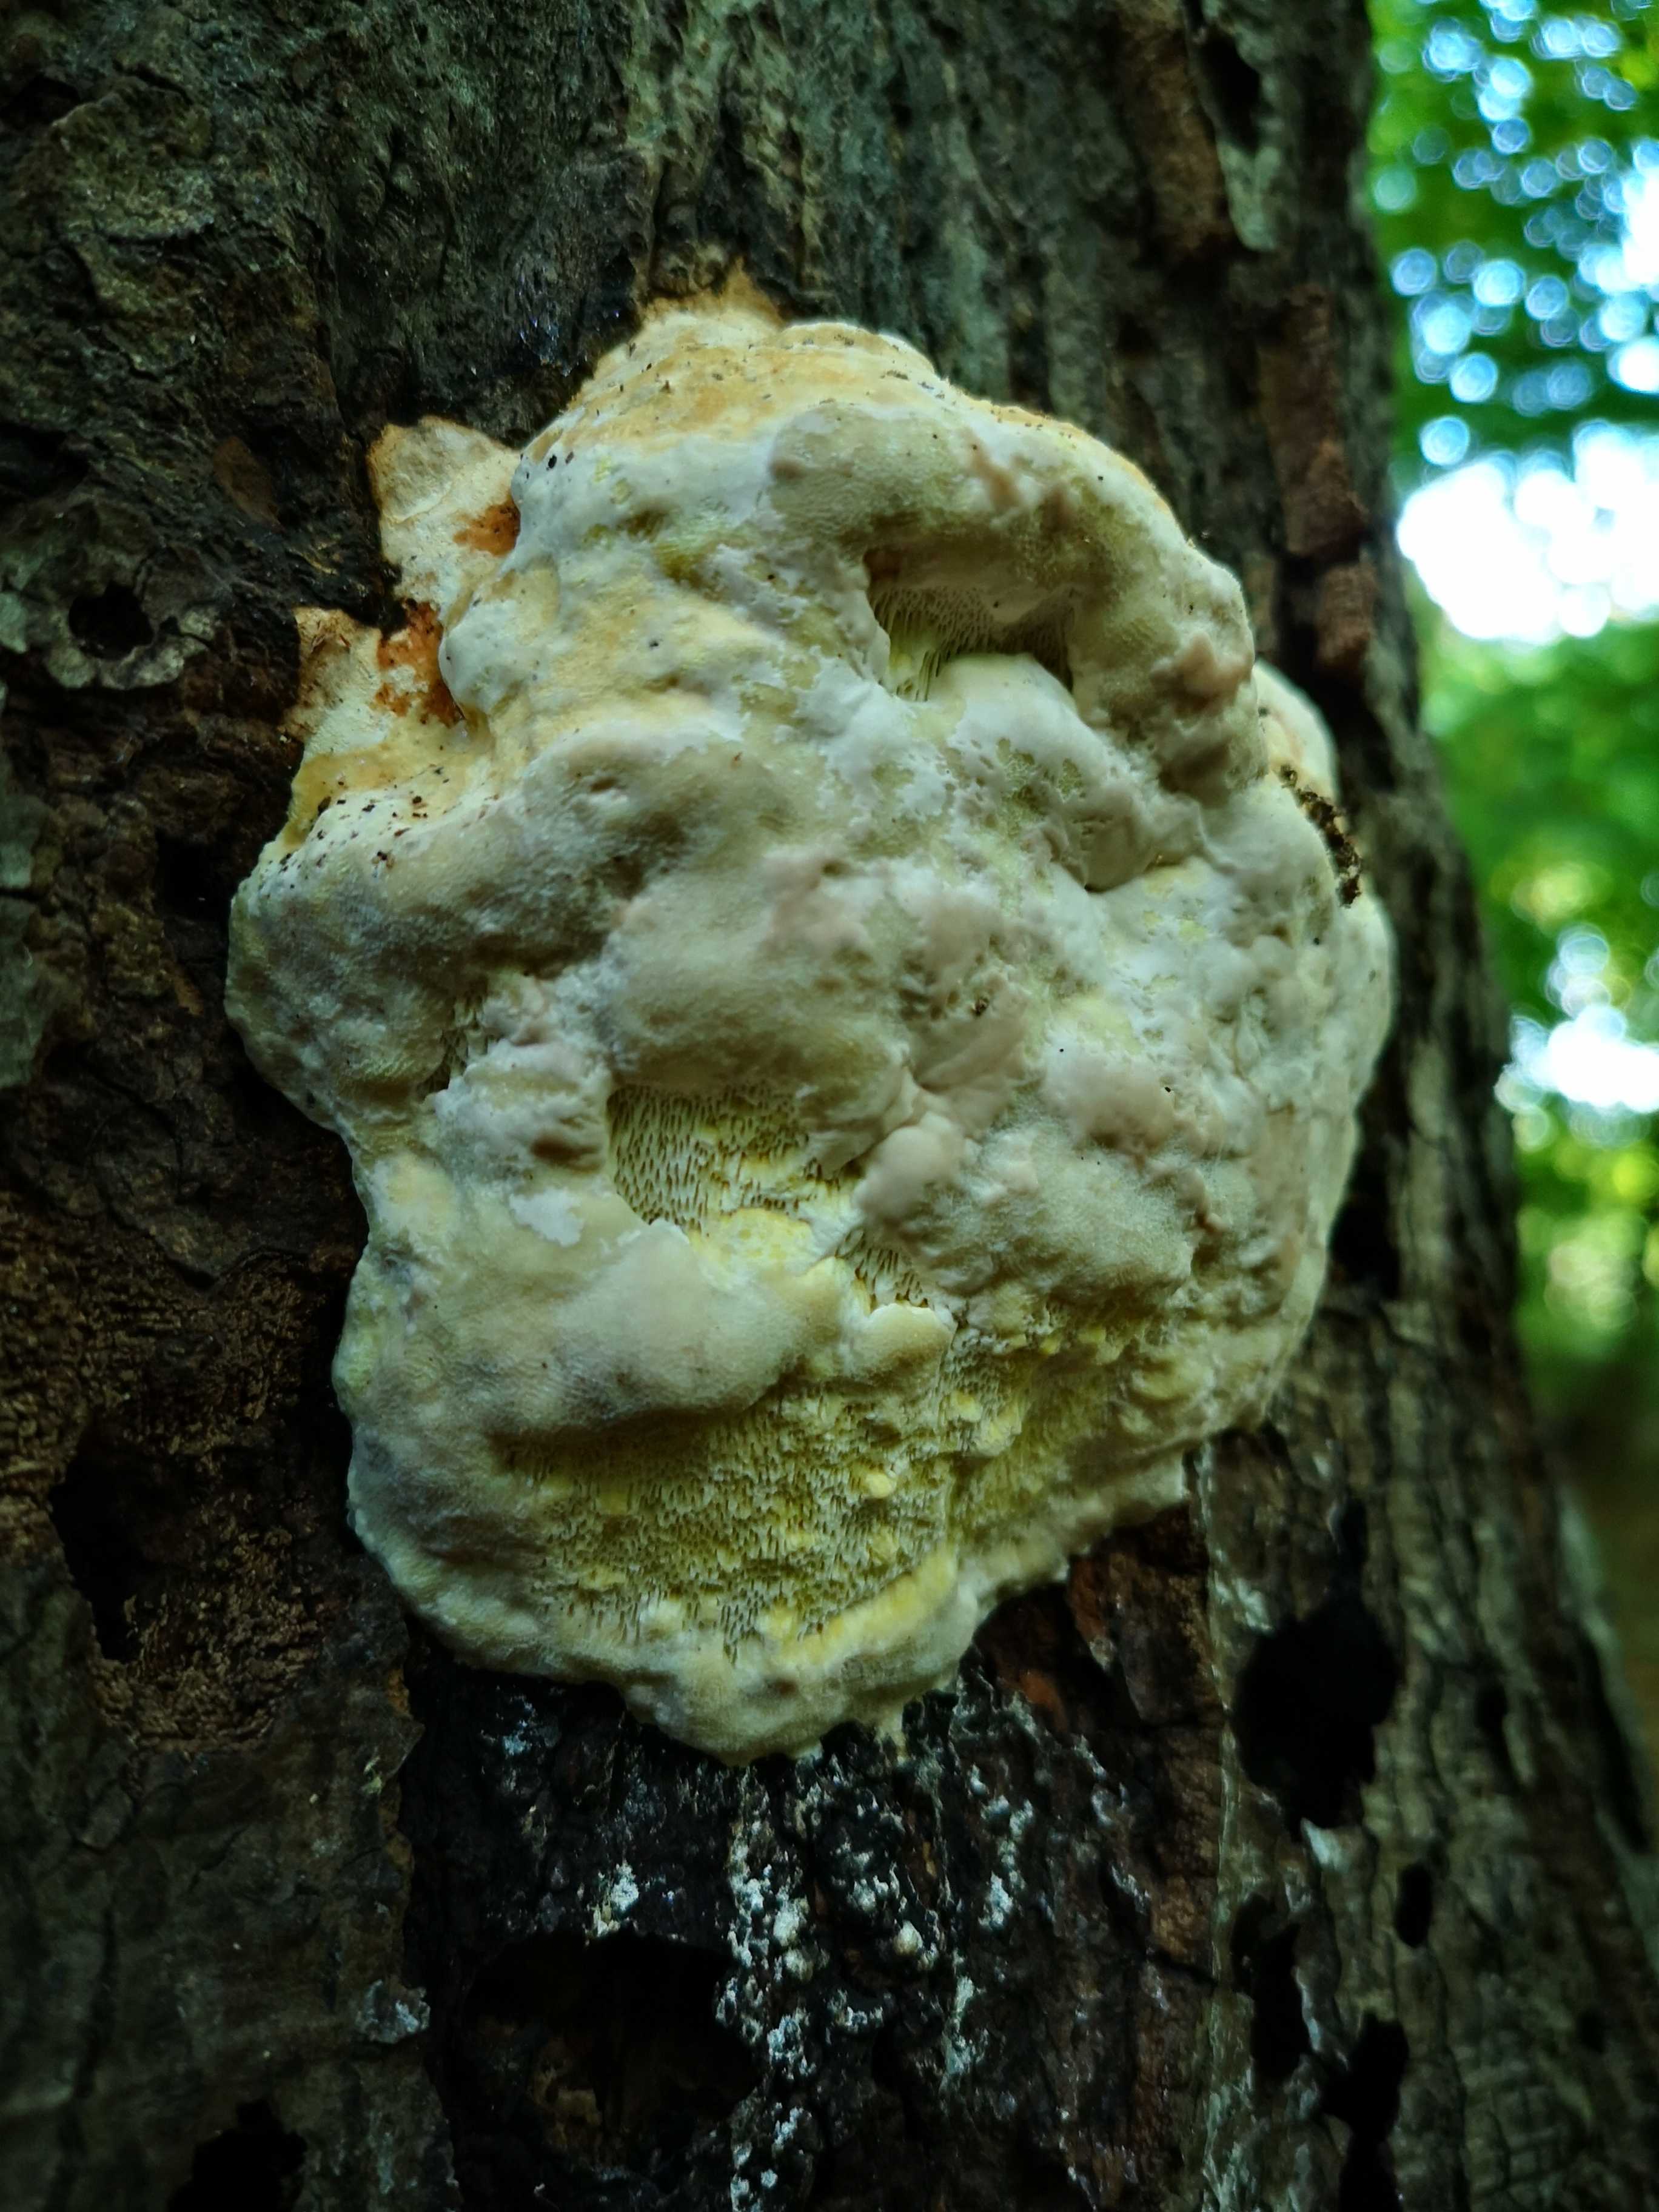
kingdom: Fungi
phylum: Basidiomycota
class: Agaricomycetes
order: Polyporales
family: Fomitopsidaceae
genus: Fomitopsis
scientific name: Fomitopsis pinicola
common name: randbæltet hovporesvamp
